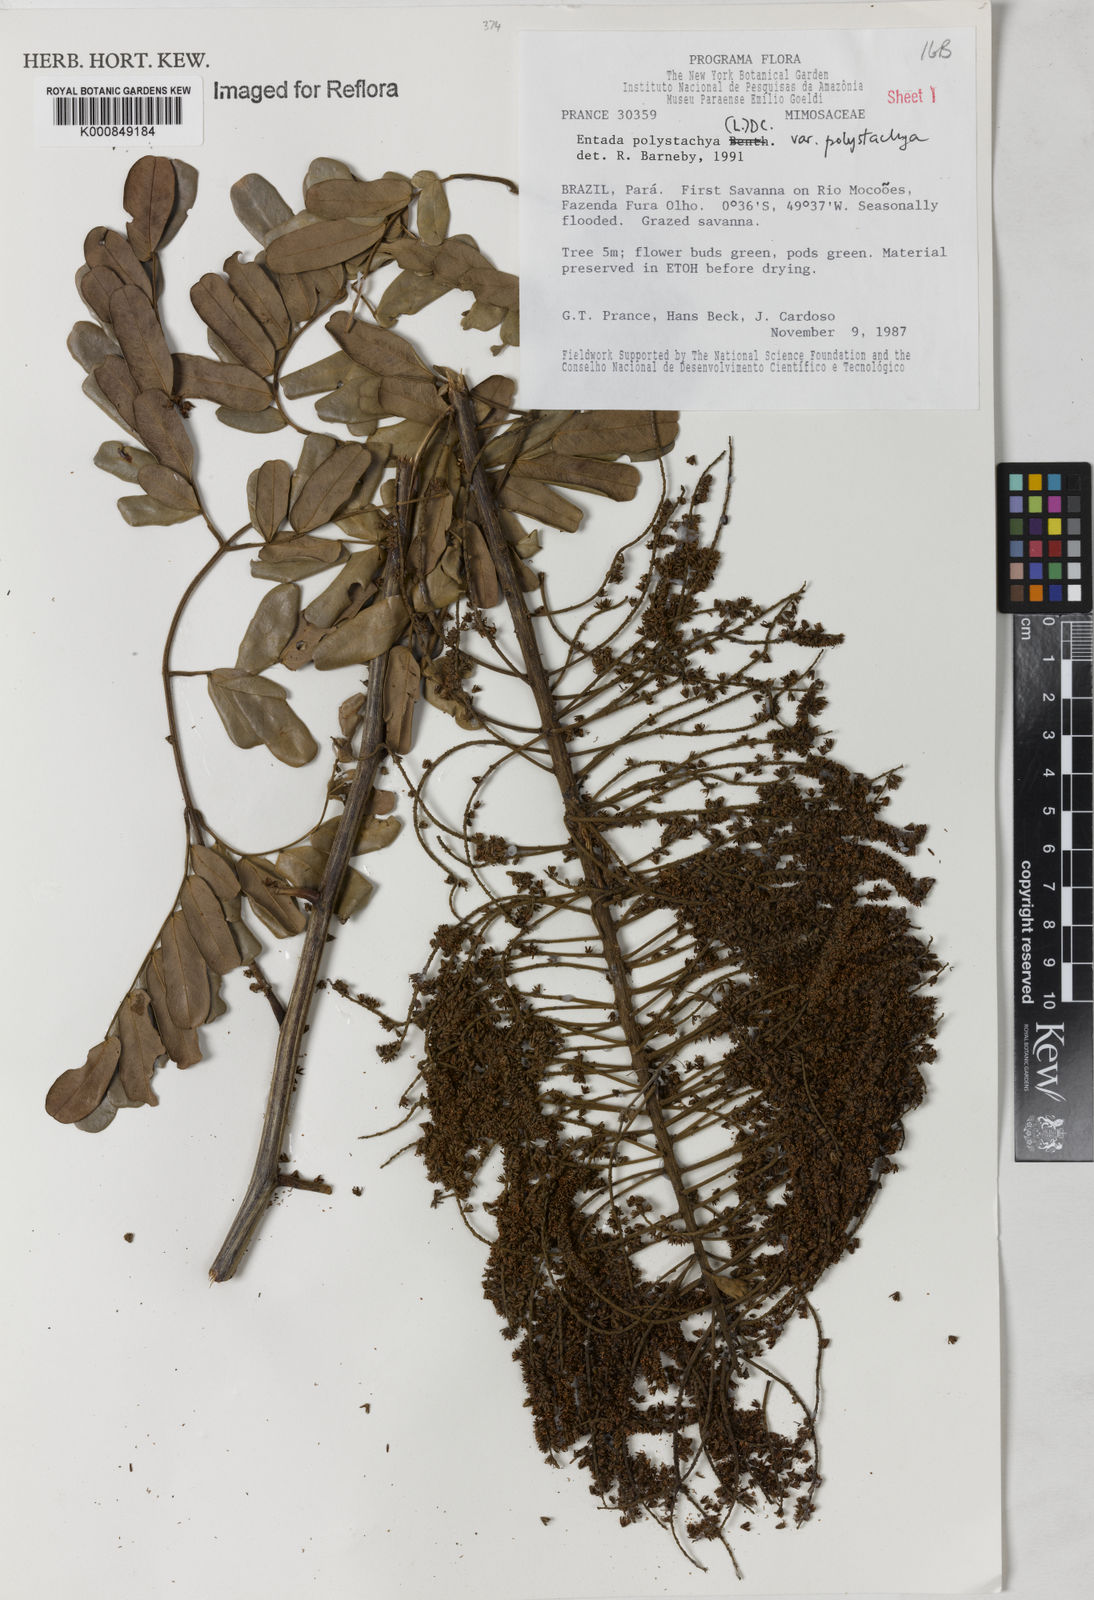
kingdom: Plantae
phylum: Tracheophyta
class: Magnoliopsida
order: Fabales
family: Fabaceae
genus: Entada
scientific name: Entada polystachya
